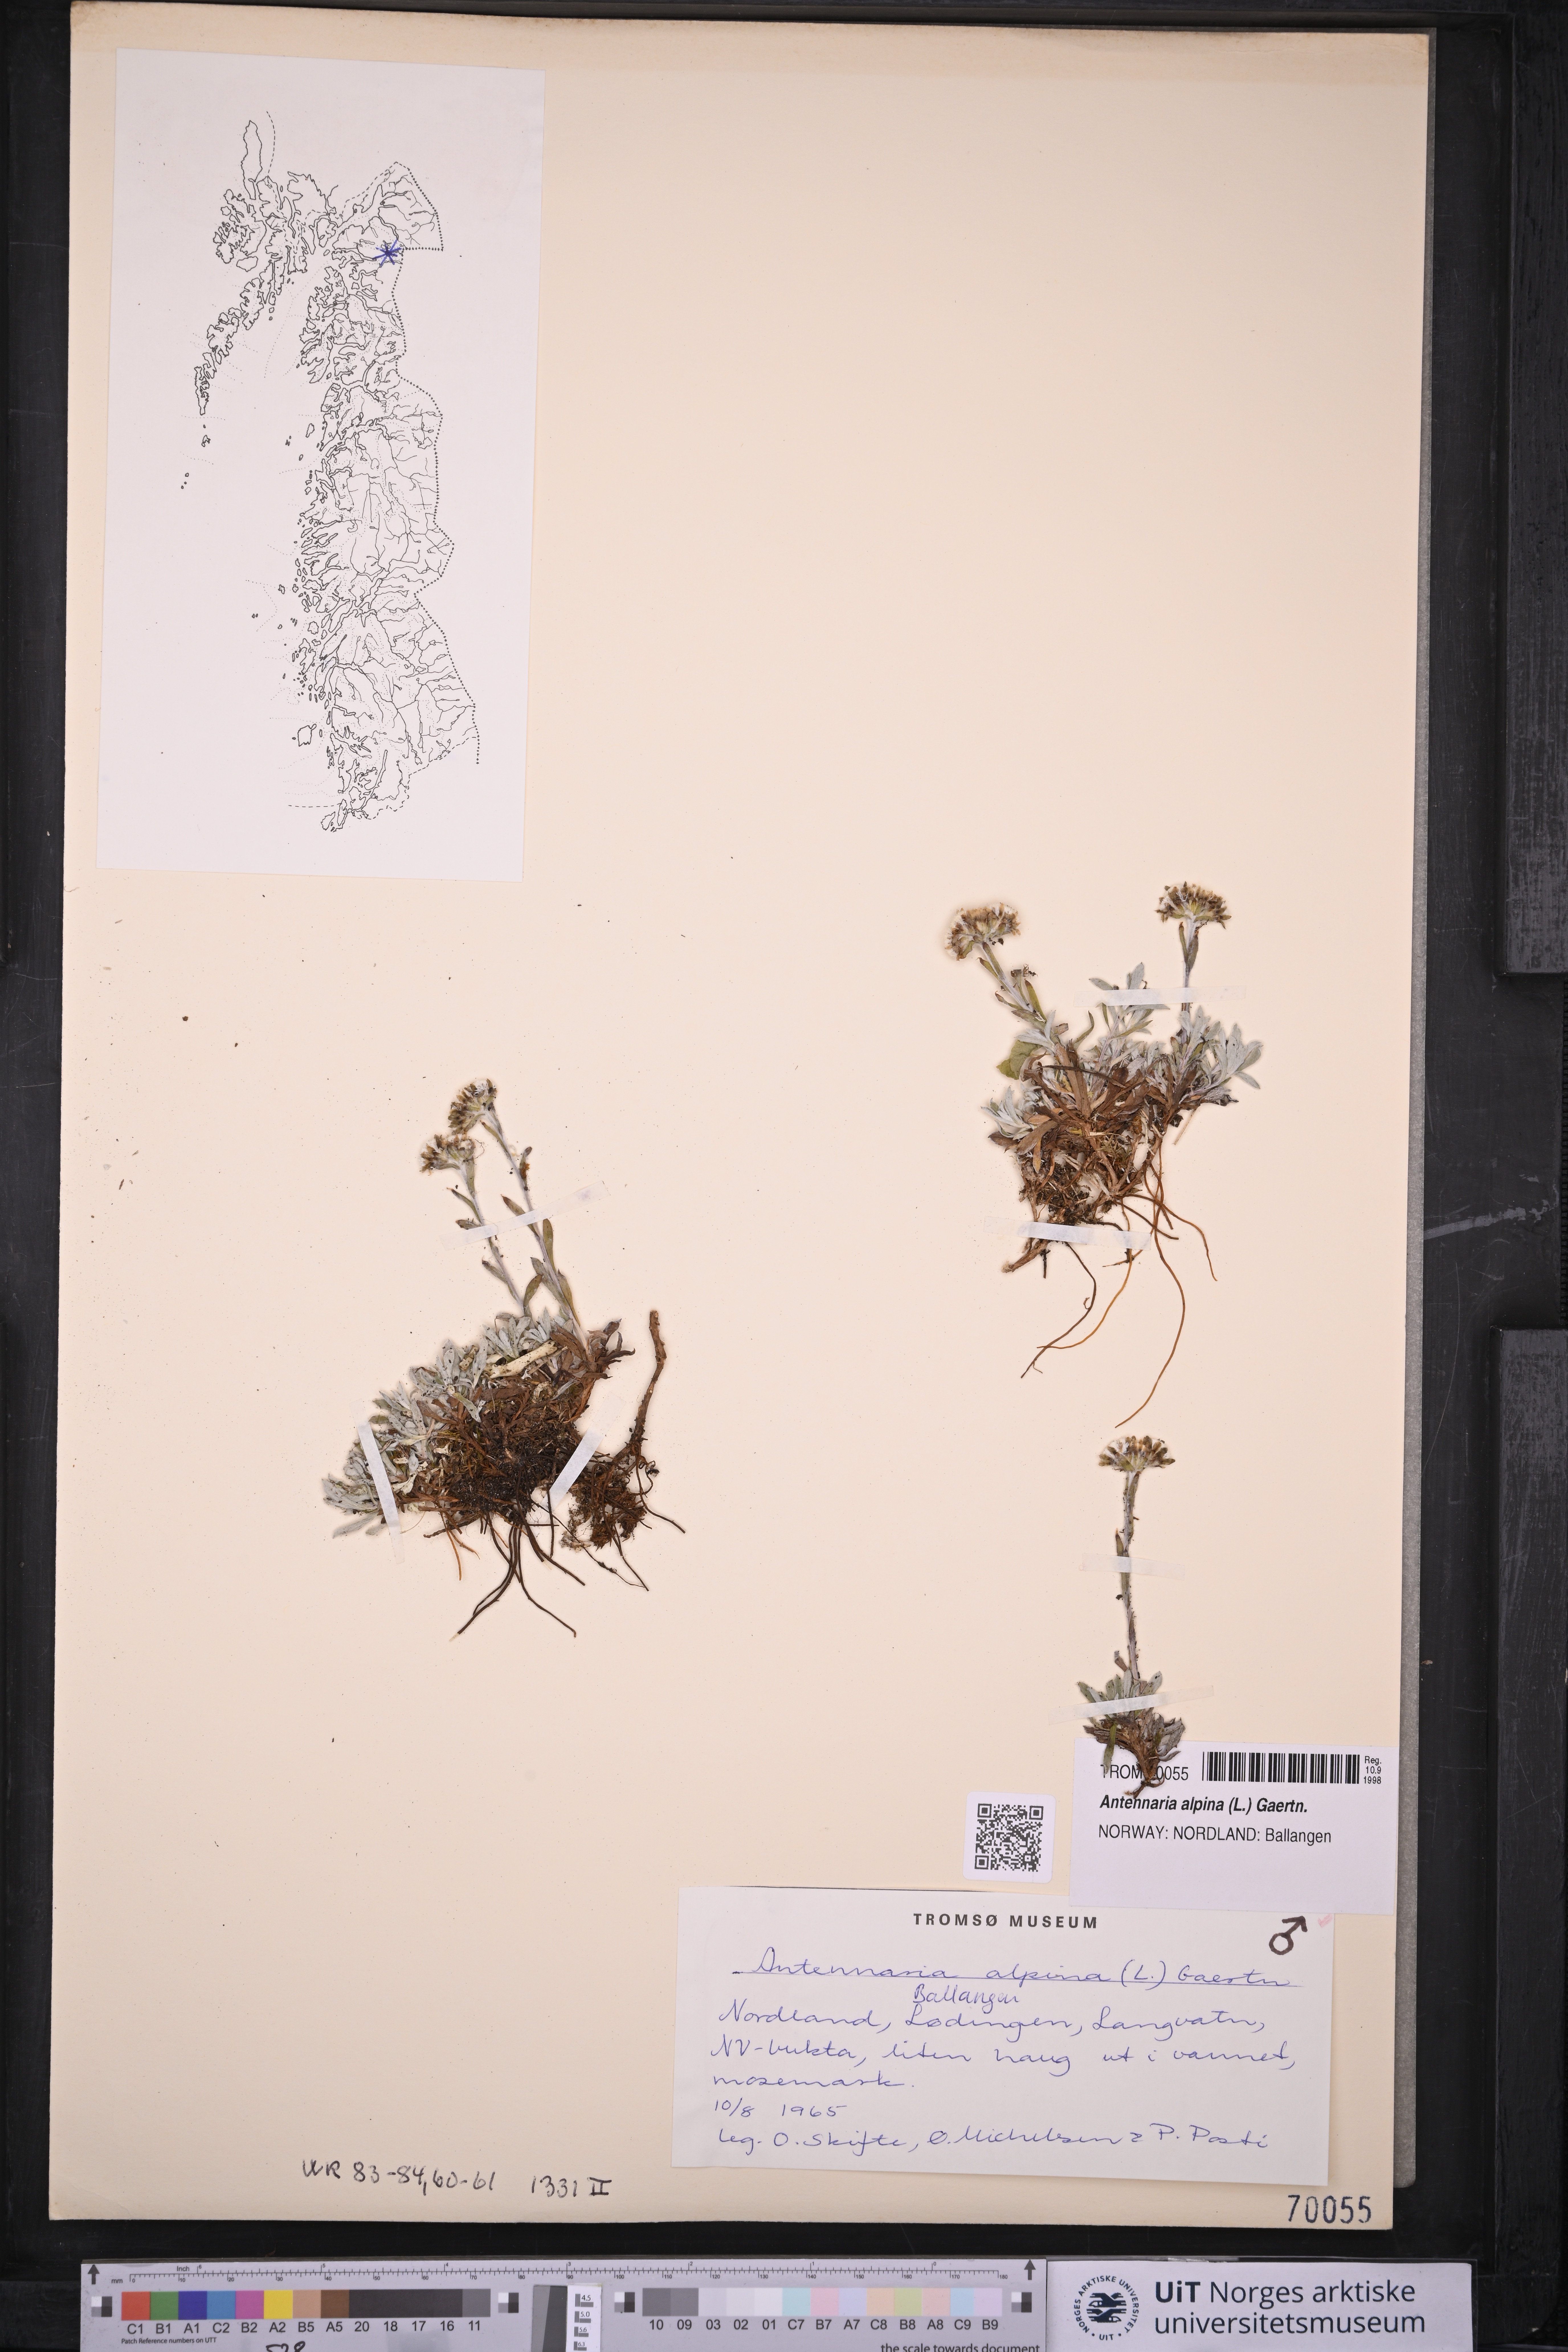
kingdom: Plantae
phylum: Tracheophyta
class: Magnoliopsida
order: Asterales
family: Asteraceae
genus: Antennaria
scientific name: Antennaria alpina
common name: Alpine pussytoes
